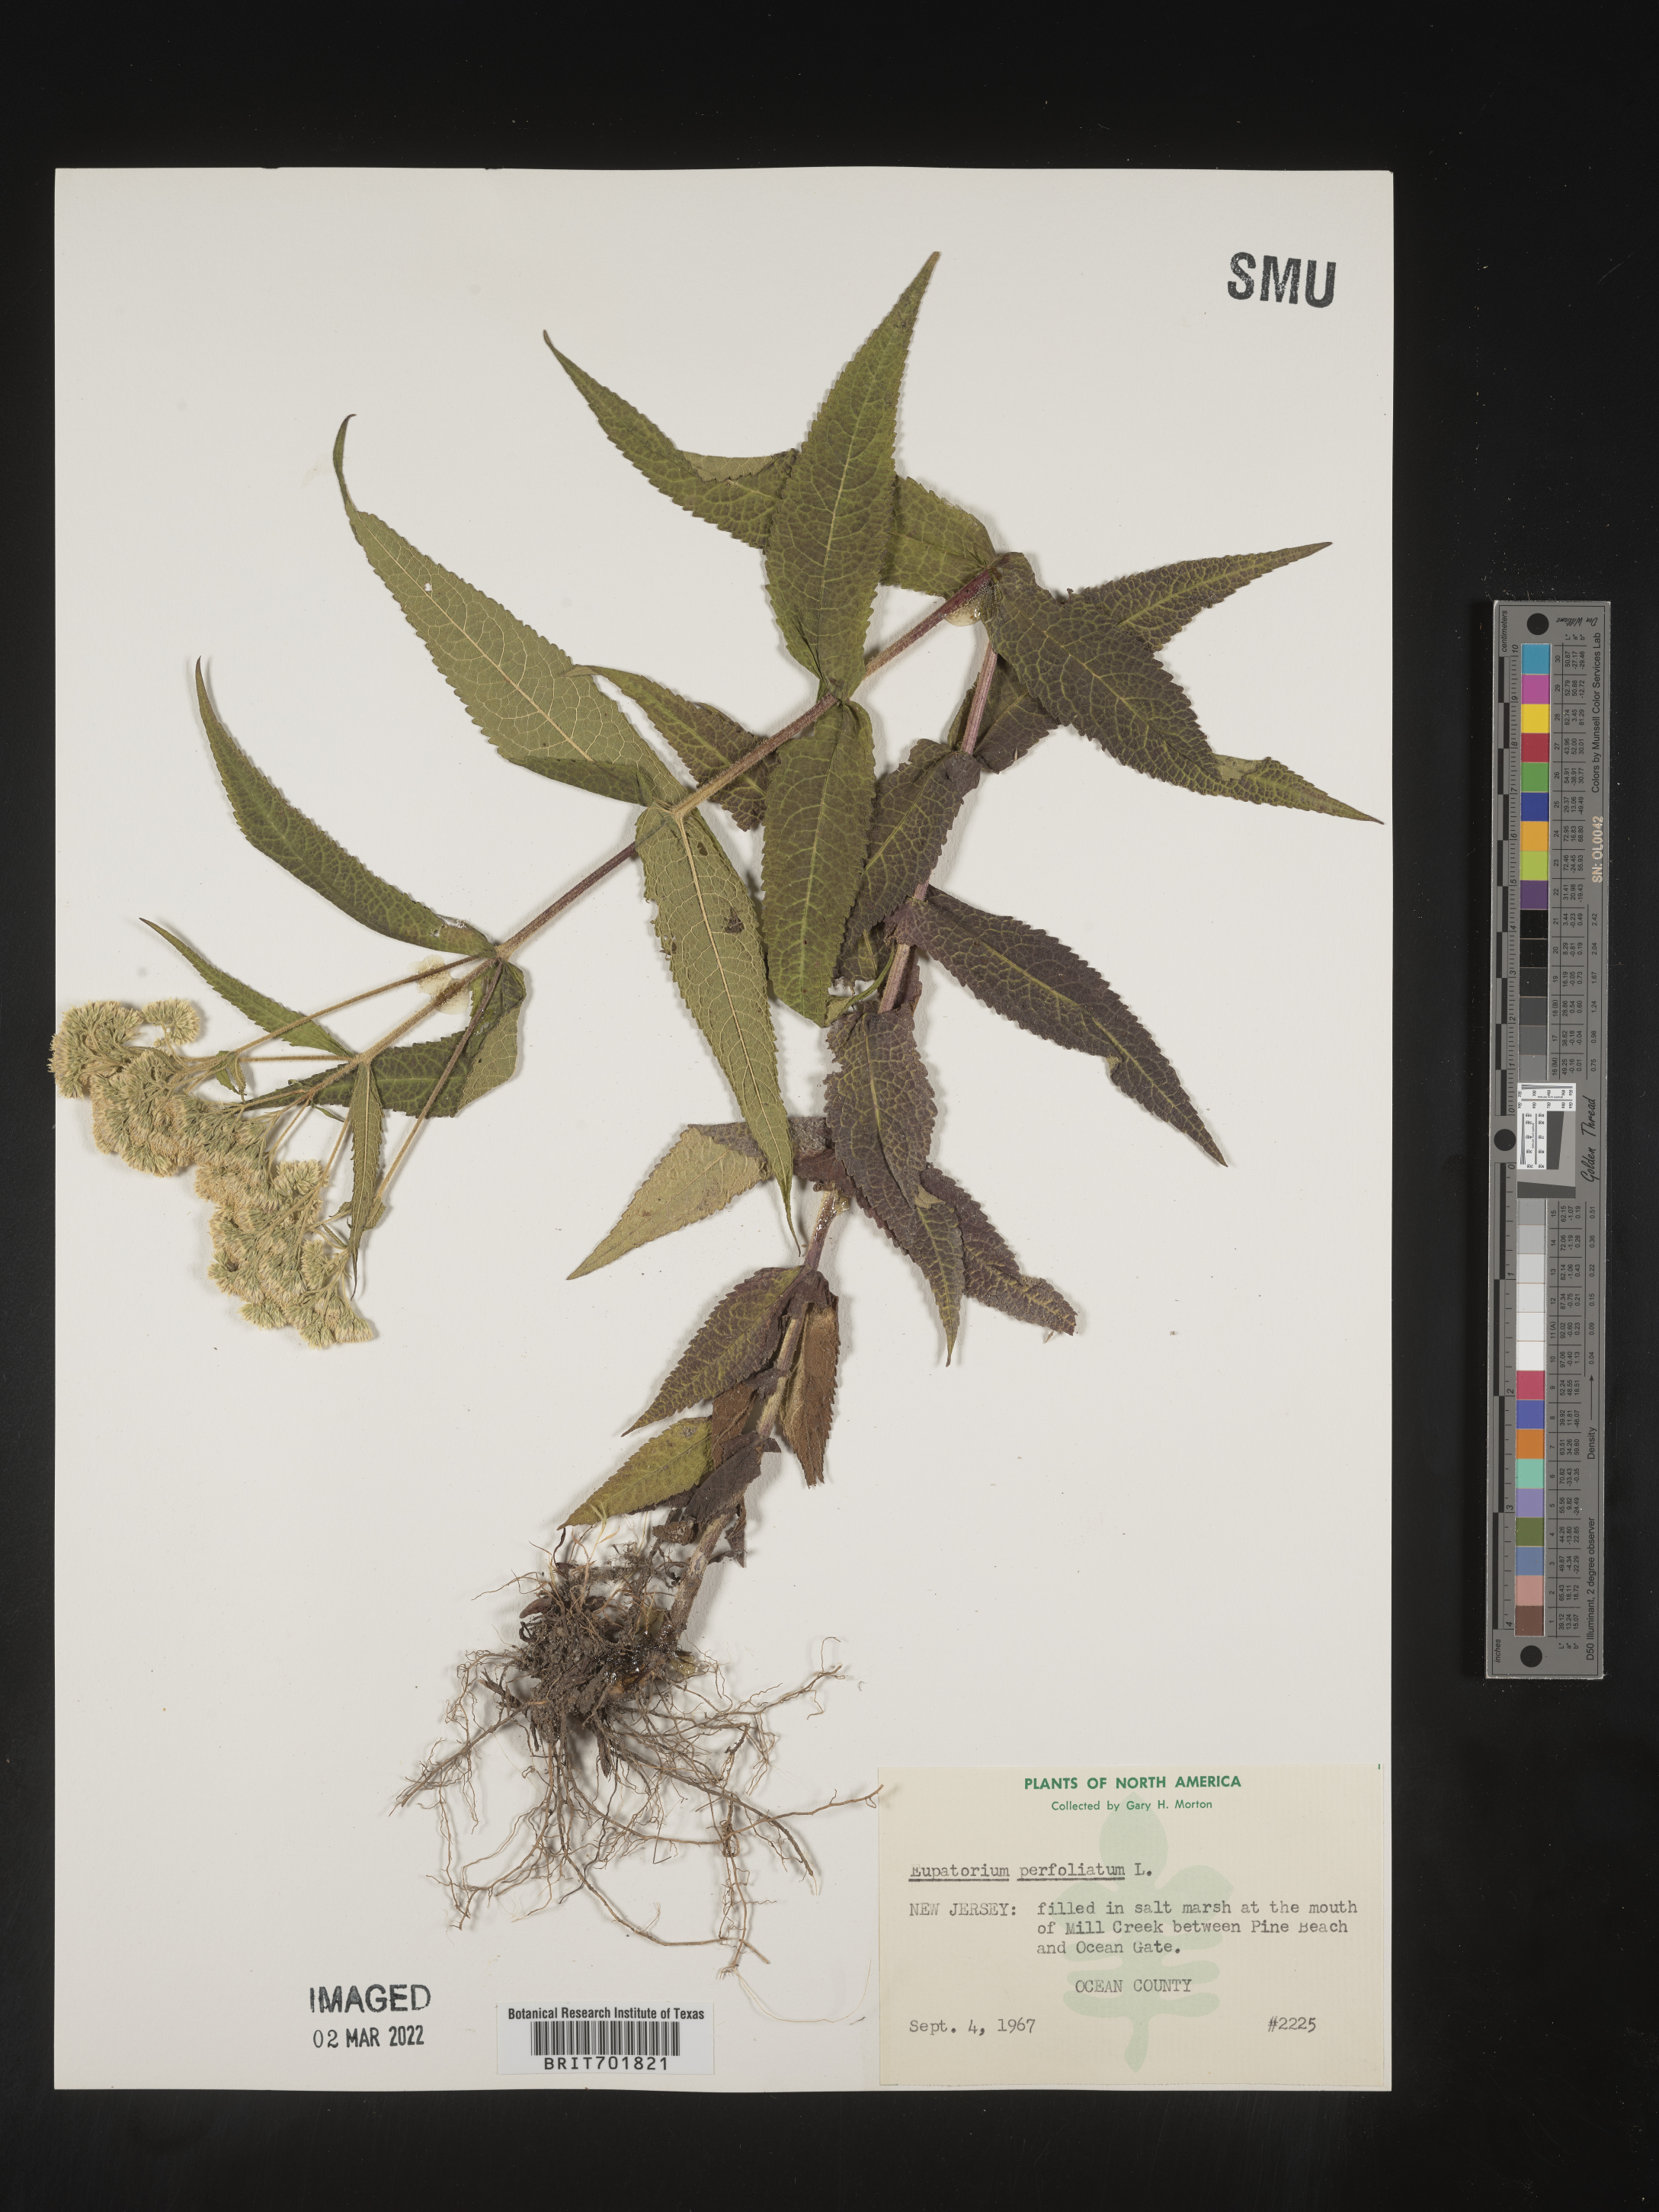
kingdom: Plantae
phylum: Tracheophyta
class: Magnoliopsida
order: Asterales
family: Asteraceae
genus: Eupatorium
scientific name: Eupatorium perfoliatum
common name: Boneset
